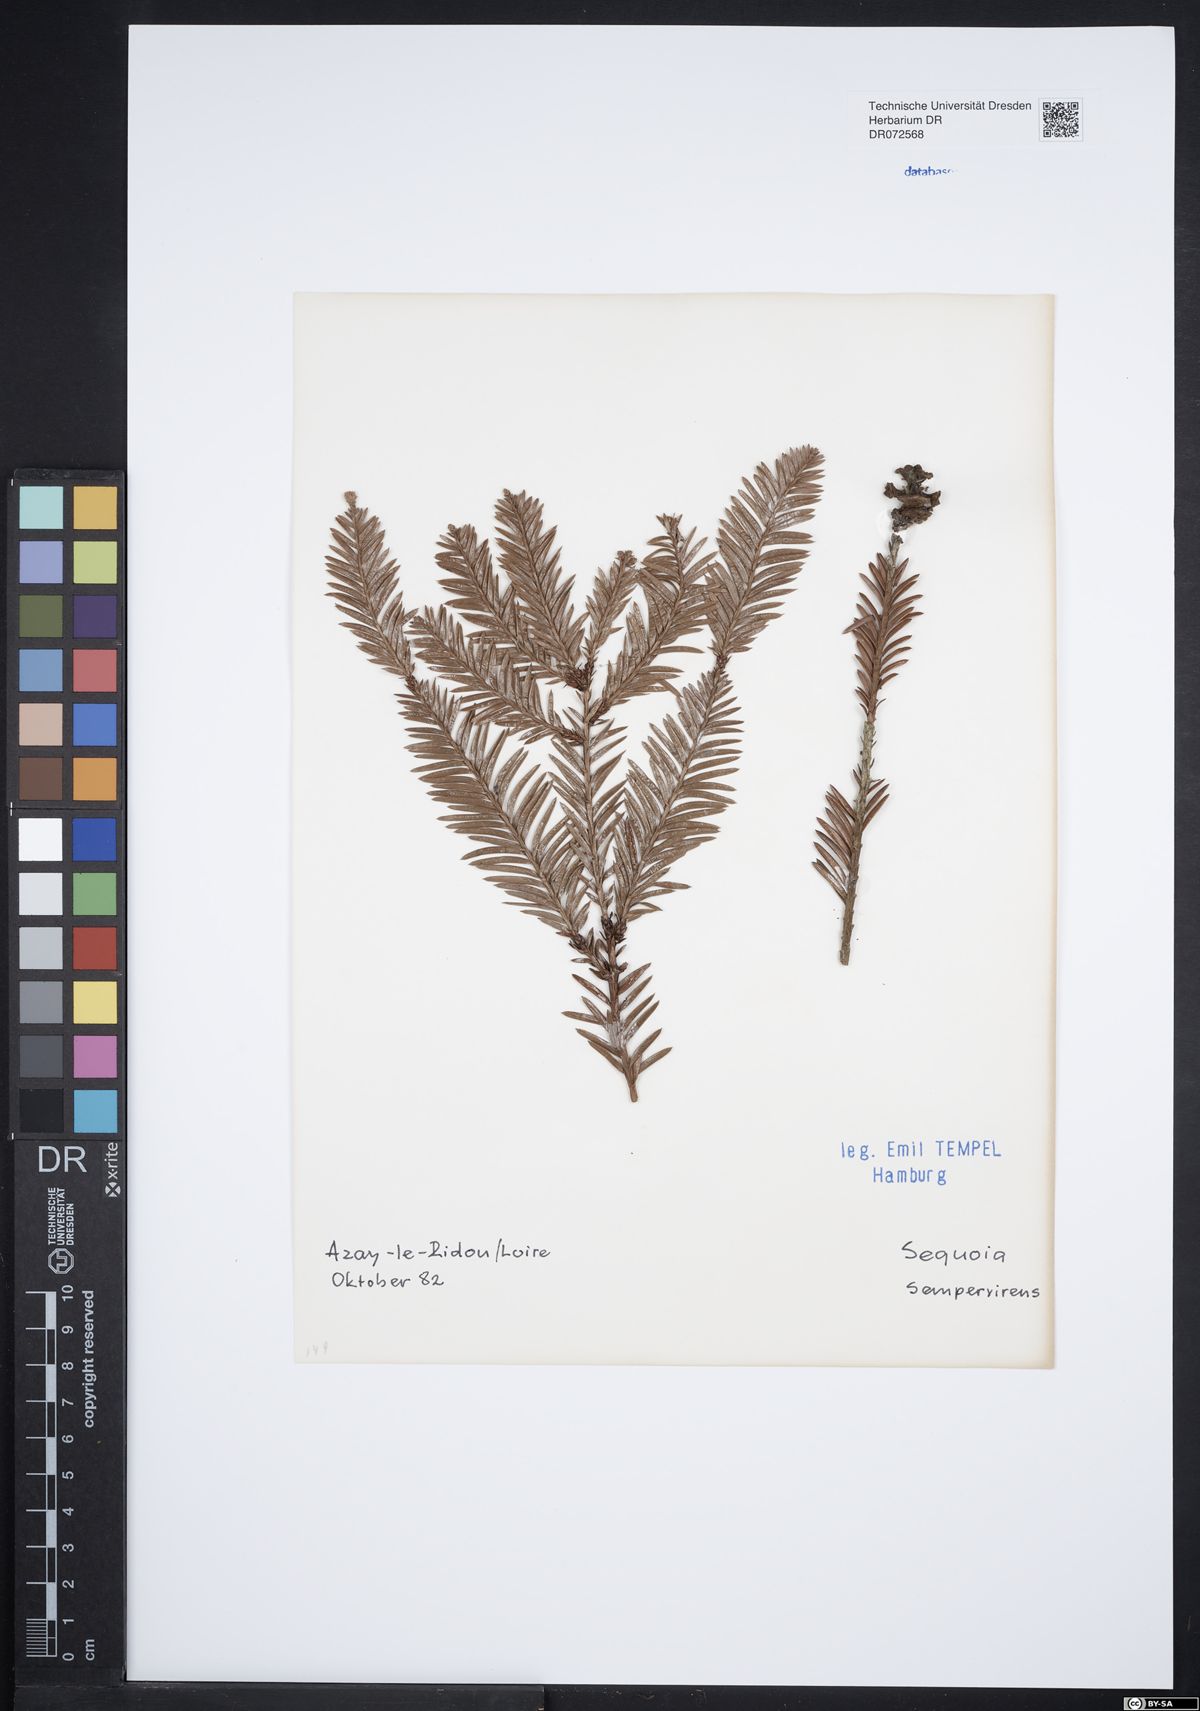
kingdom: Plantae
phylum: Tracheophyta
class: Pinopsida
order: Pinales
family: Cupressaceae
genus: Sequoia
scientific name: Sequoia sempervirens
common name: Coast redwood
